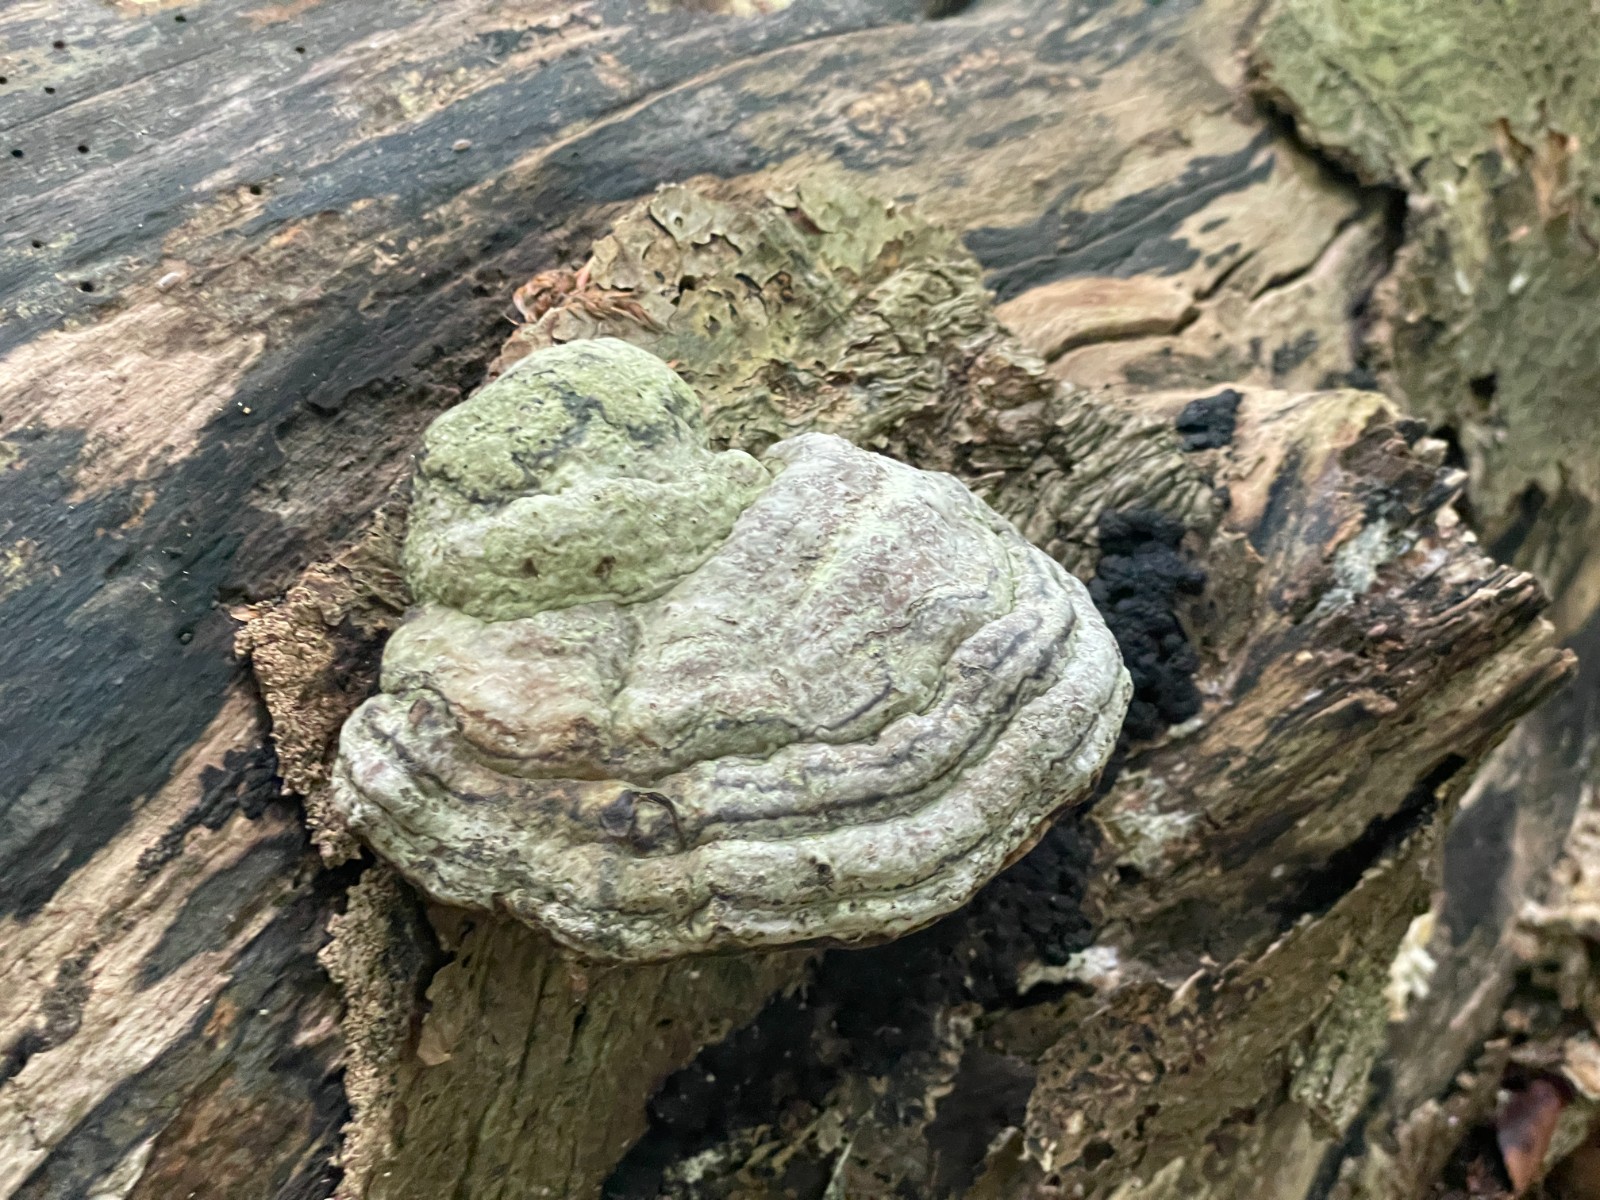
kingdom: Fungi
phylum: Basidiomycota
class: Agaricomycetes
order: Polyporales
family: Polyporaceae
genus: Fomes
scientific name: Fomes fomentarius
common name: tøndersvamp
